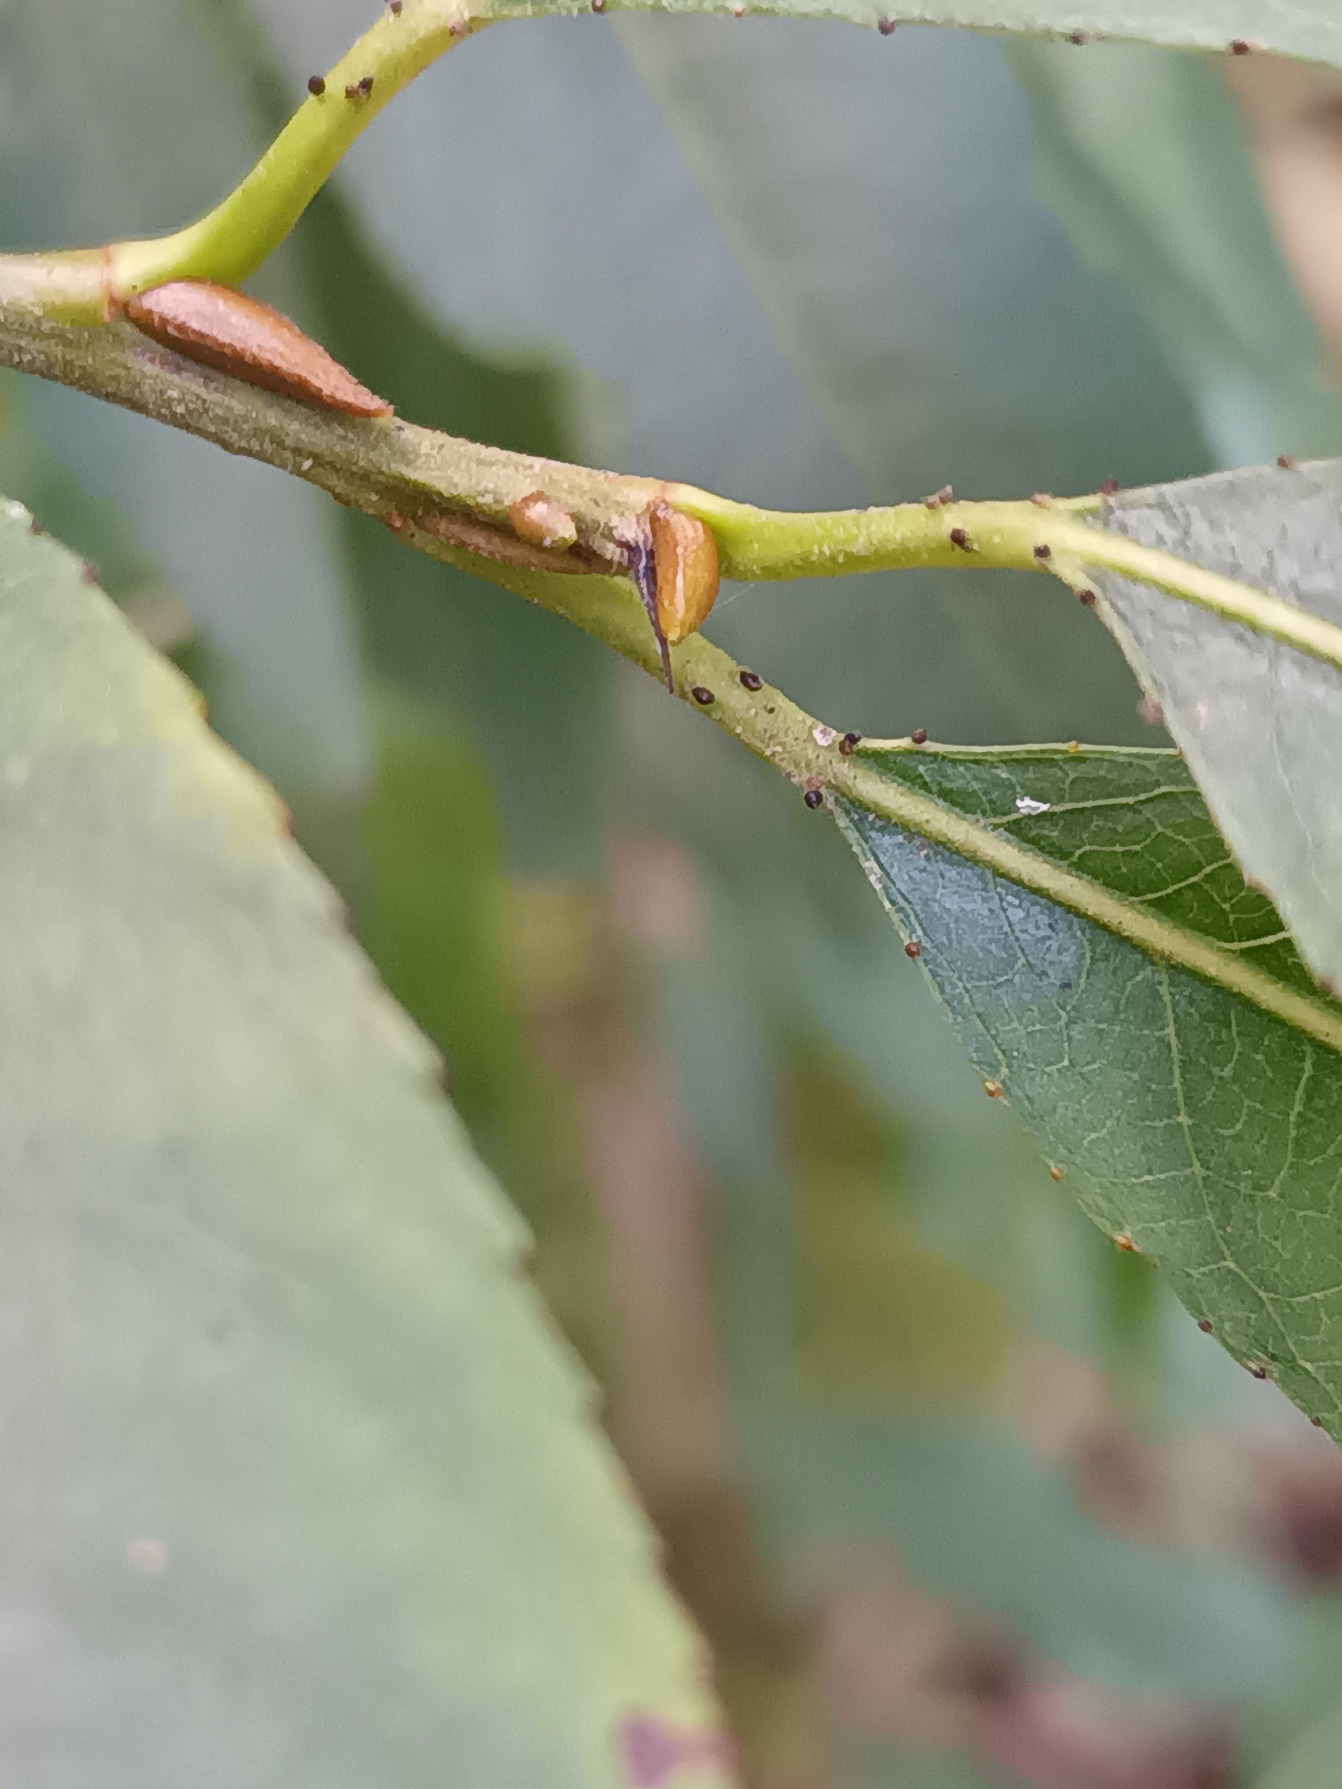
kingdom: Plantae
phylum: Tracheophyta
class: Magnoliopsida
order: Malpighiales
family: Salicaceae
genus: Salix
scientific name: Salix meyeriana
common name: Glans-pil
